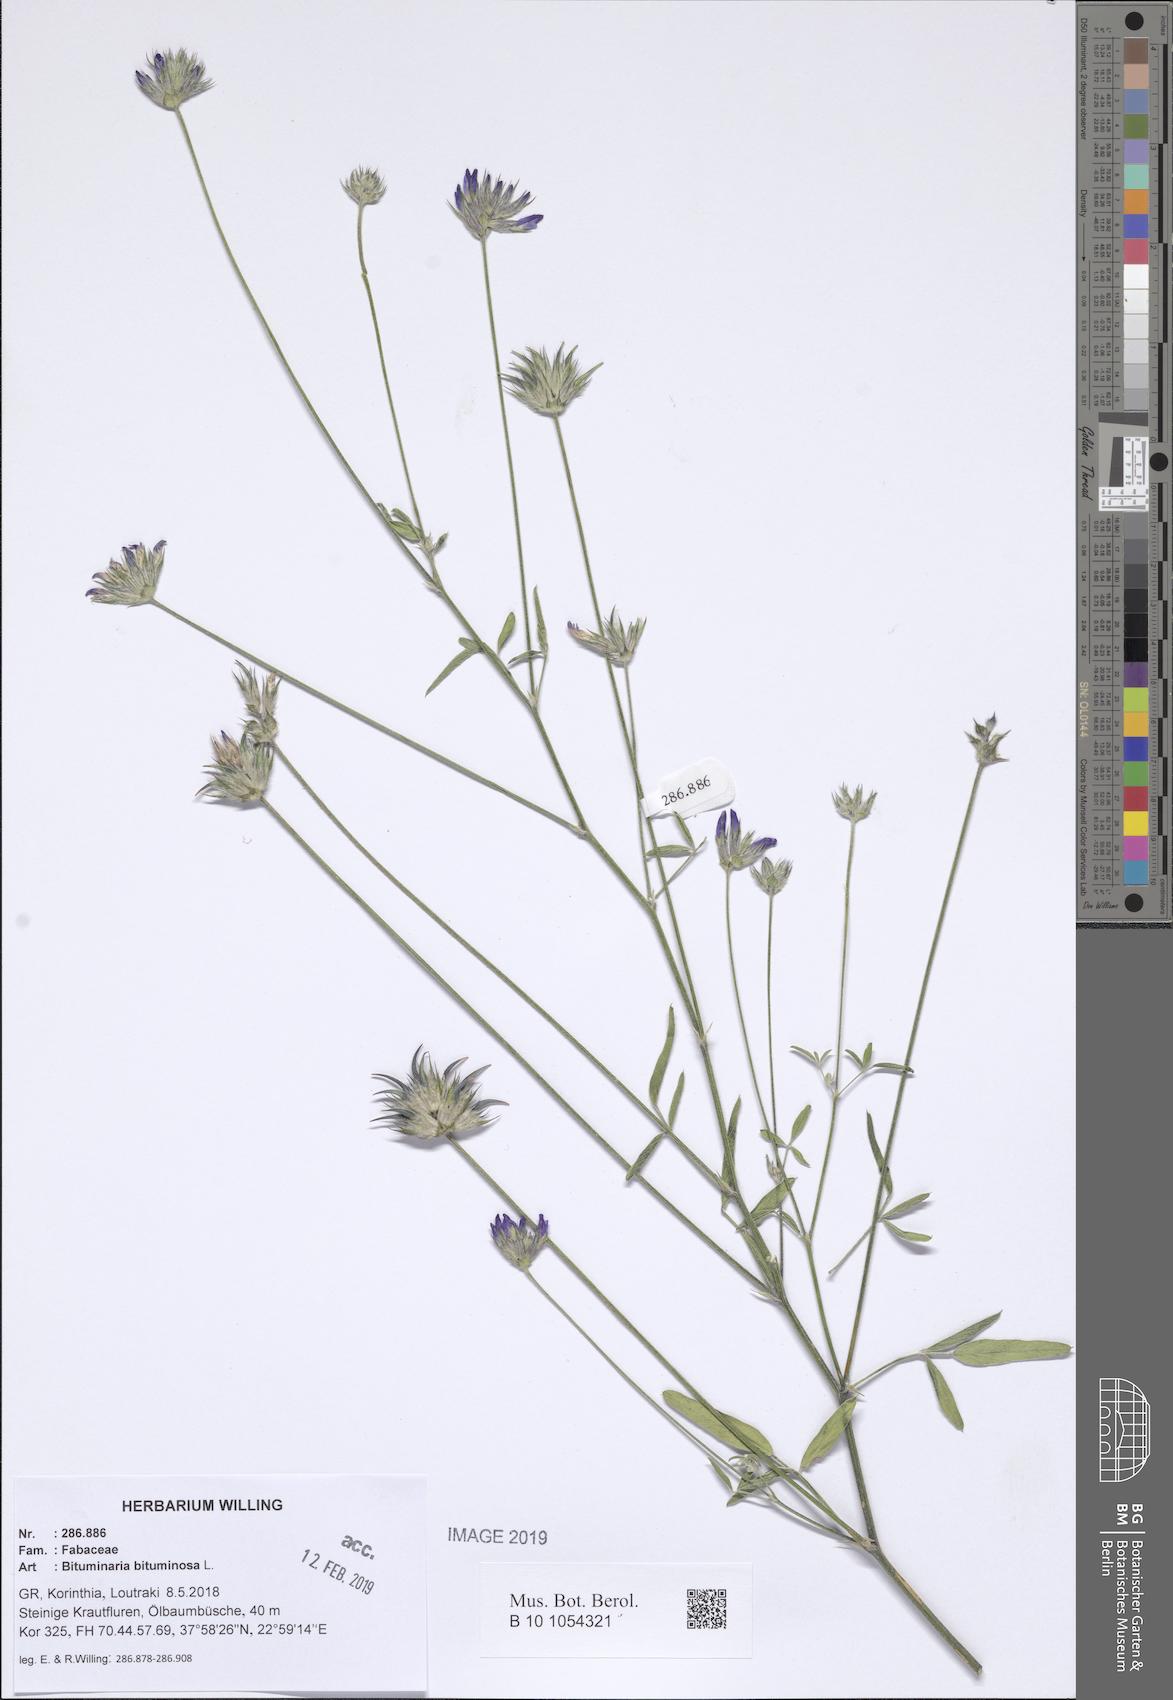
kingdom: Plantae
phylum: Tracheophyta
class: Magnoliopsida
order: Fabales
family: Fabaceae
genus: Bituminaria
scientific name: Bituminaria bituminosa
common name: Arabian pea
